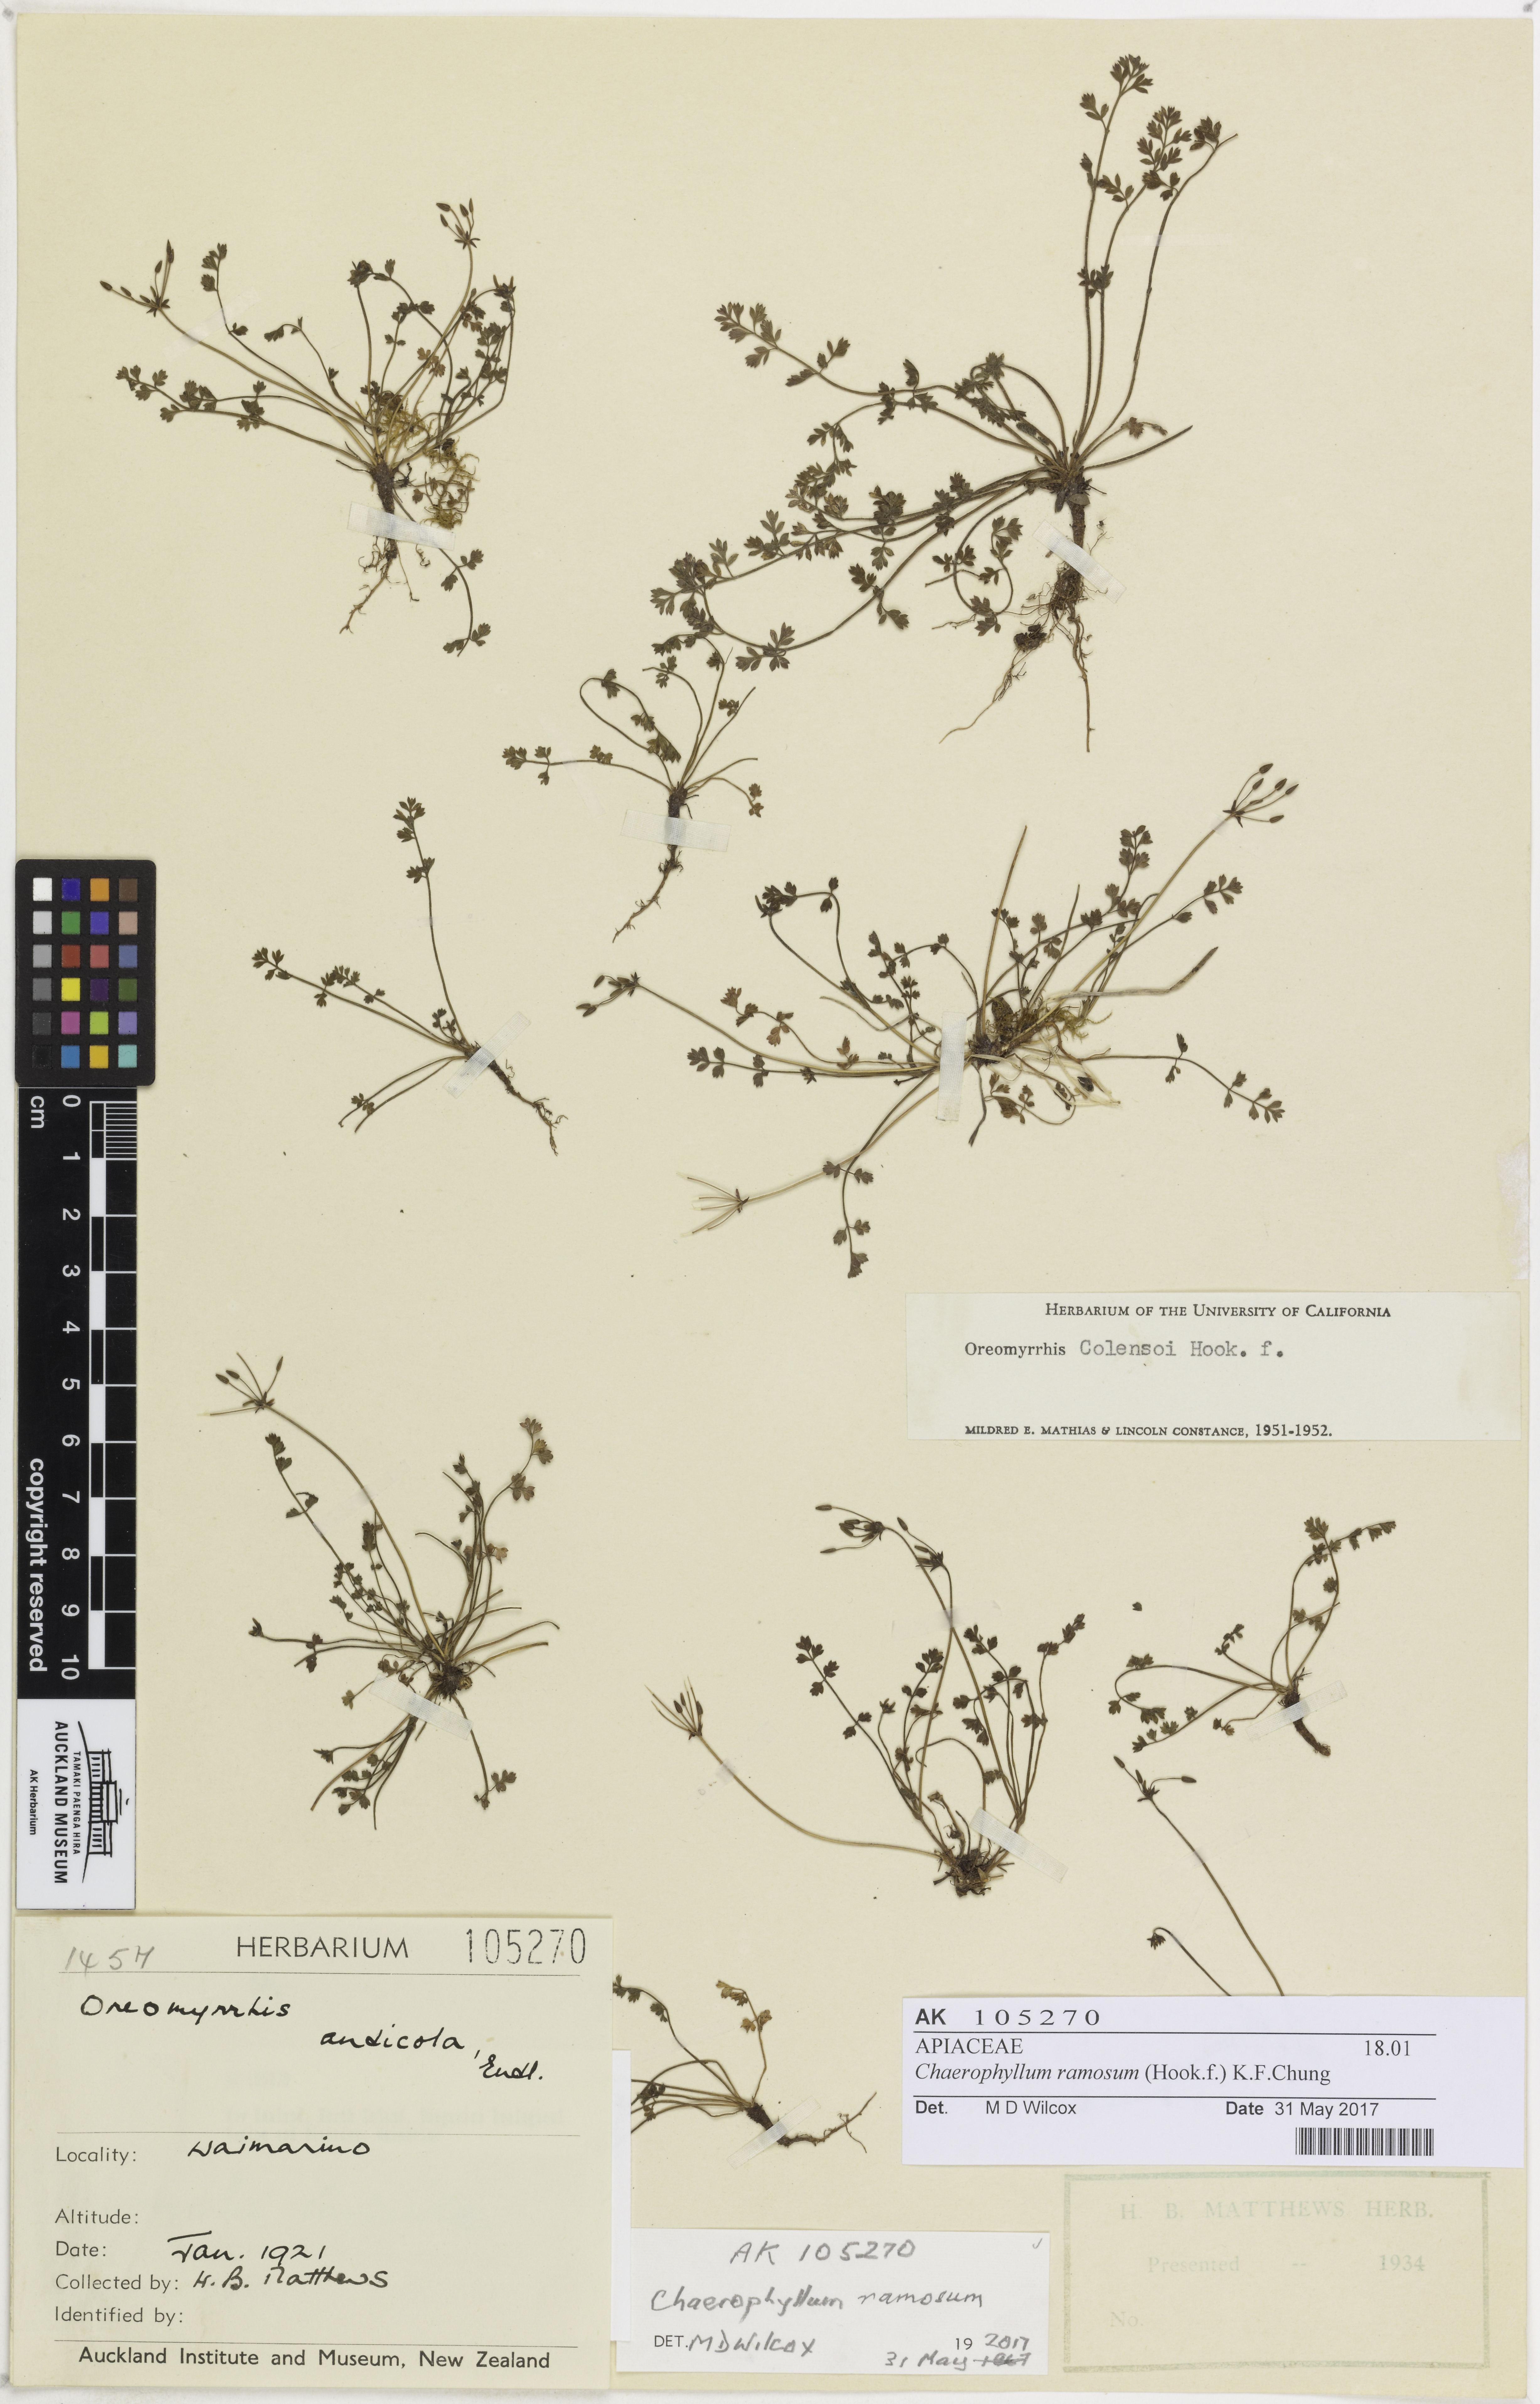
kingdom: Plantae
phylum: Tracheophyta
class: Magnoliopsida
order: Apiales
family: Apiaceae
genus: Chaerophyllum
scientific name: Chaerophyllum ramosum
